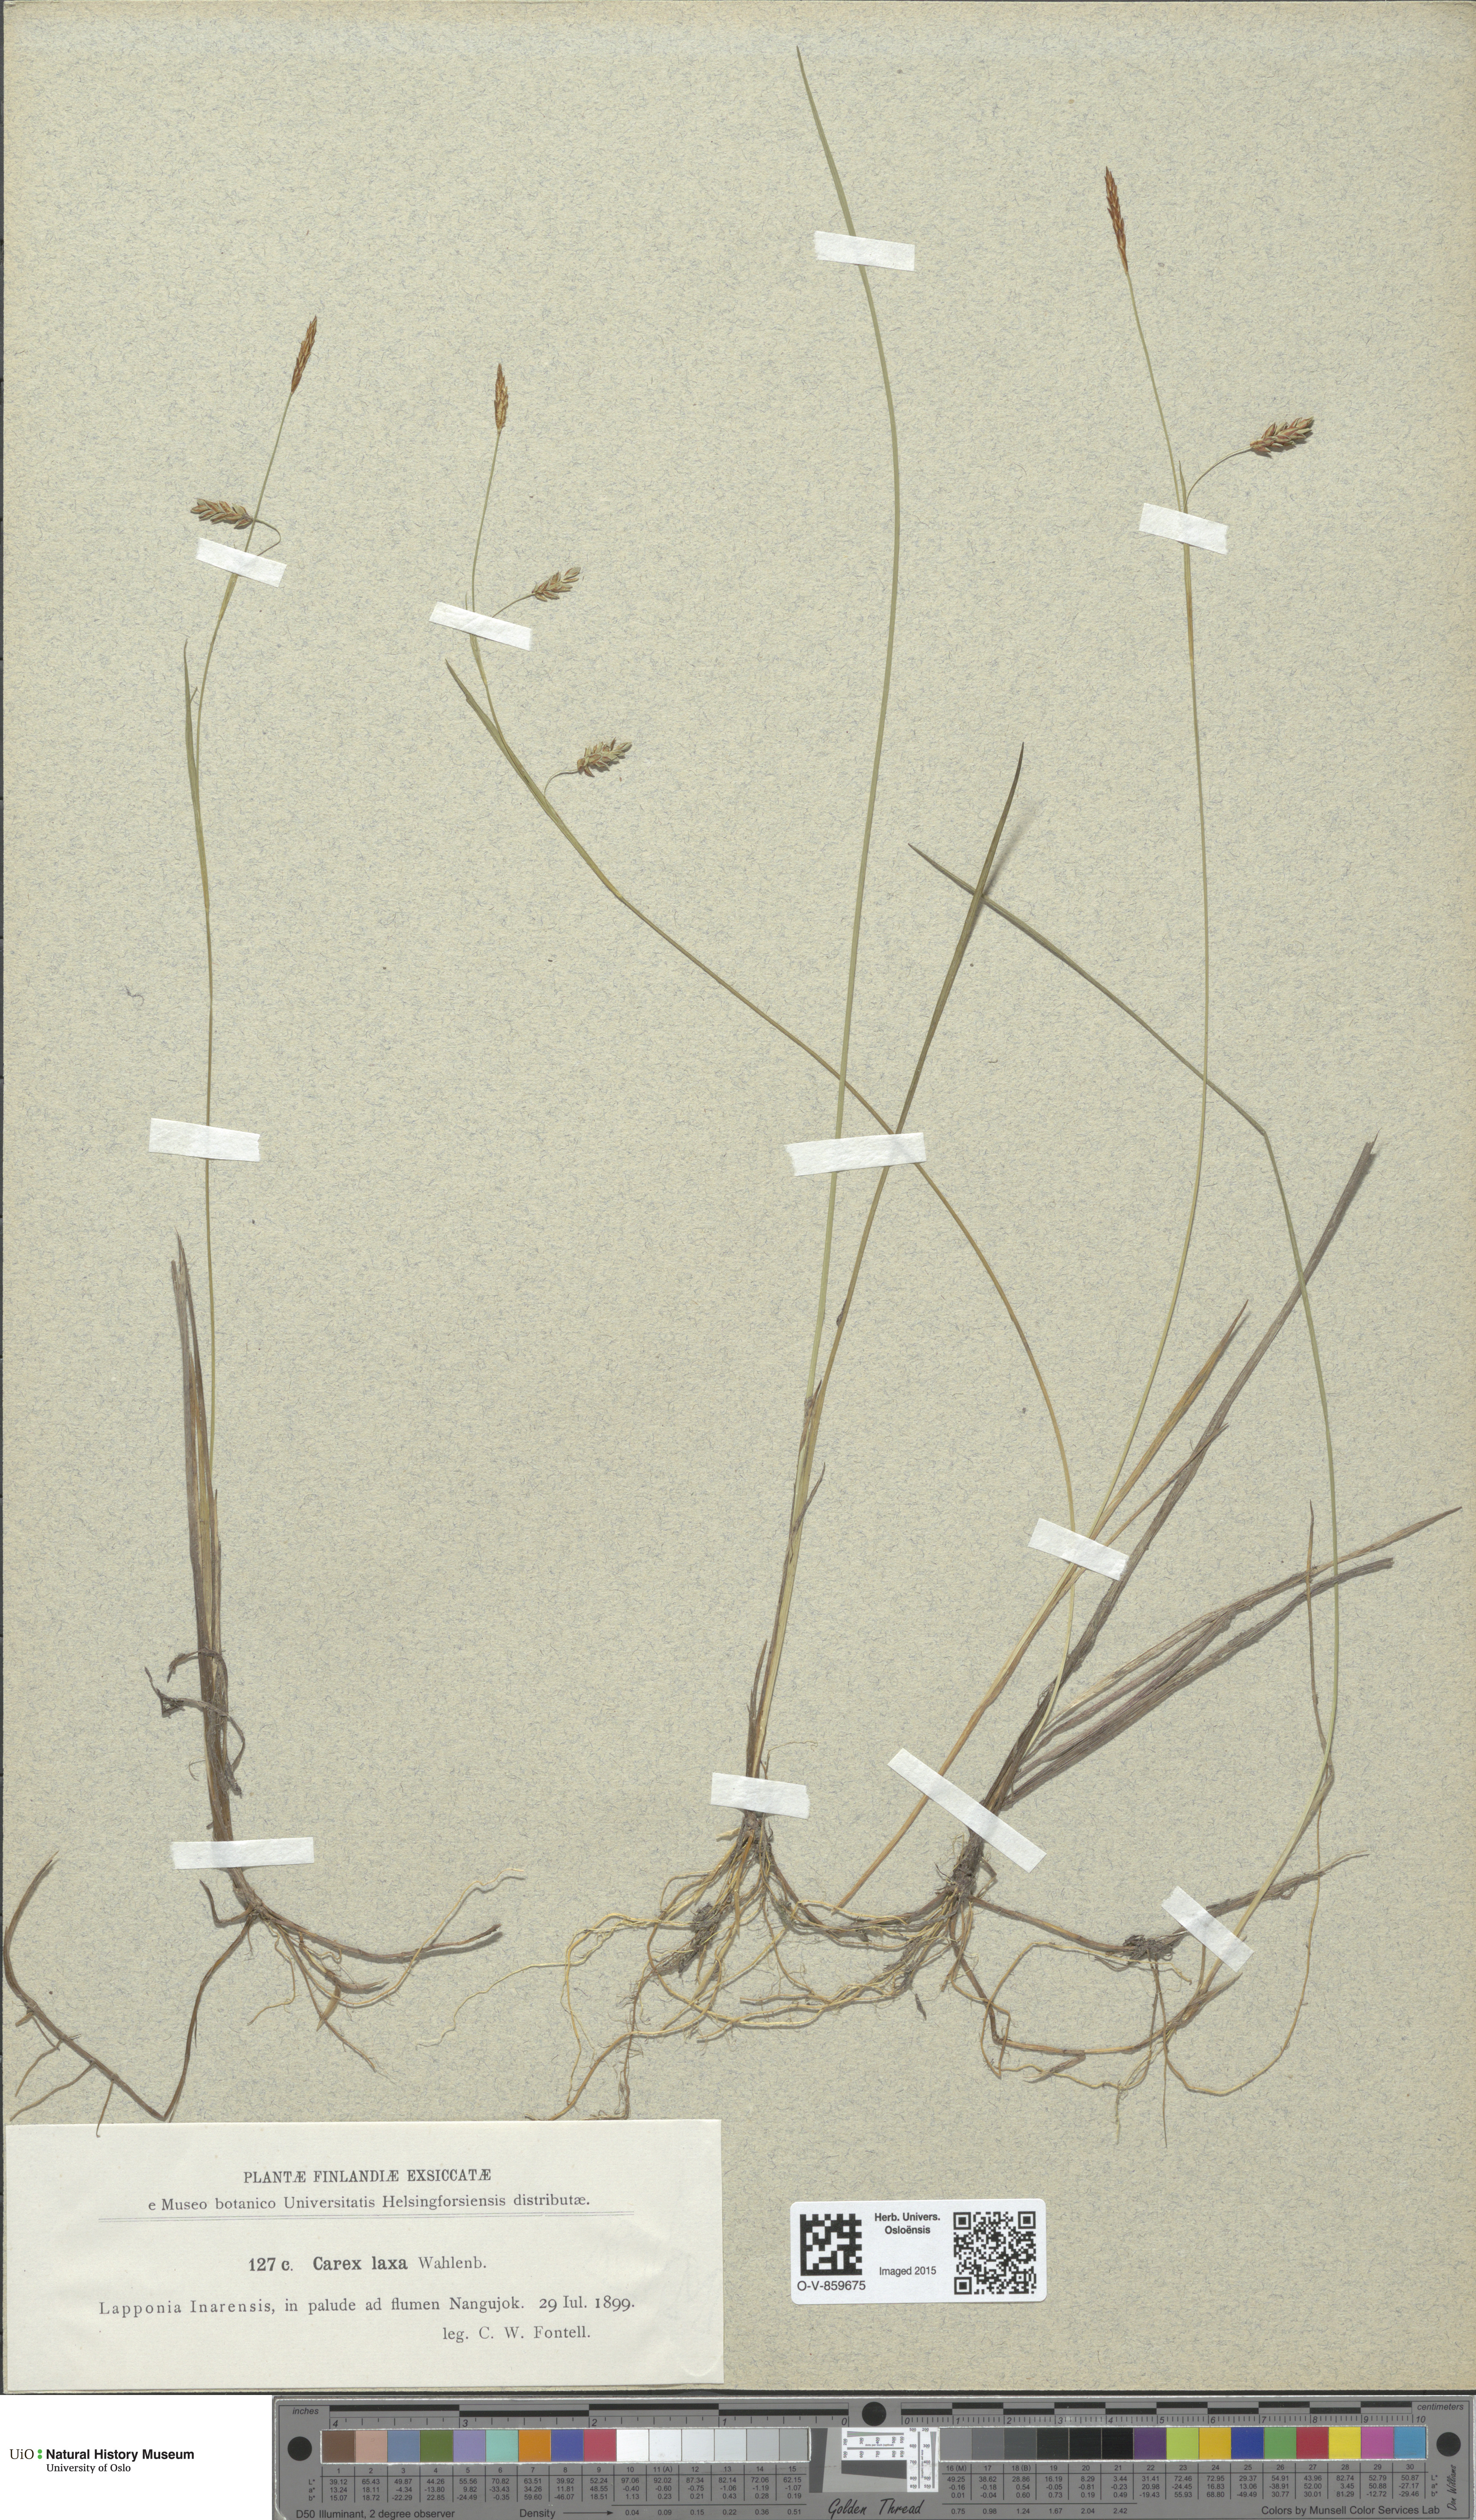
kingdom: Plantae
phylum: Tracheophyta
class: Liliopsida
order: Poales
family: Cyperaceae
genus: Carex
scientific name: Carex laxa
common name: Weak sedge
